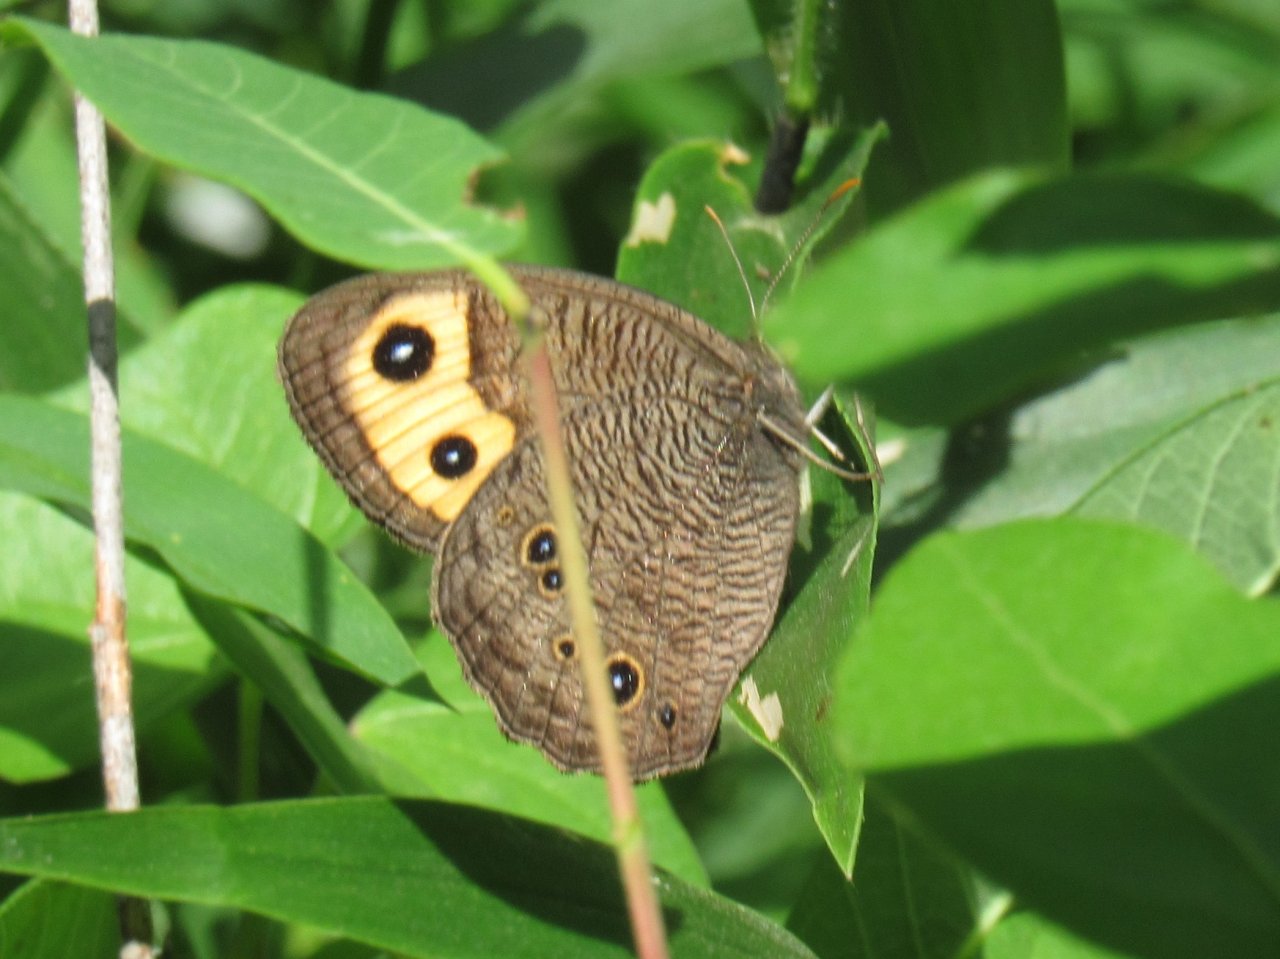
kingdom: Animalia
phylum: Arthropoda
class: Insecta
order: Lepidoptera
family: Nymphalidae
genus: Cercyonis
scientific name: Cercyonis pegala
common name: Common Wood-Nymph
